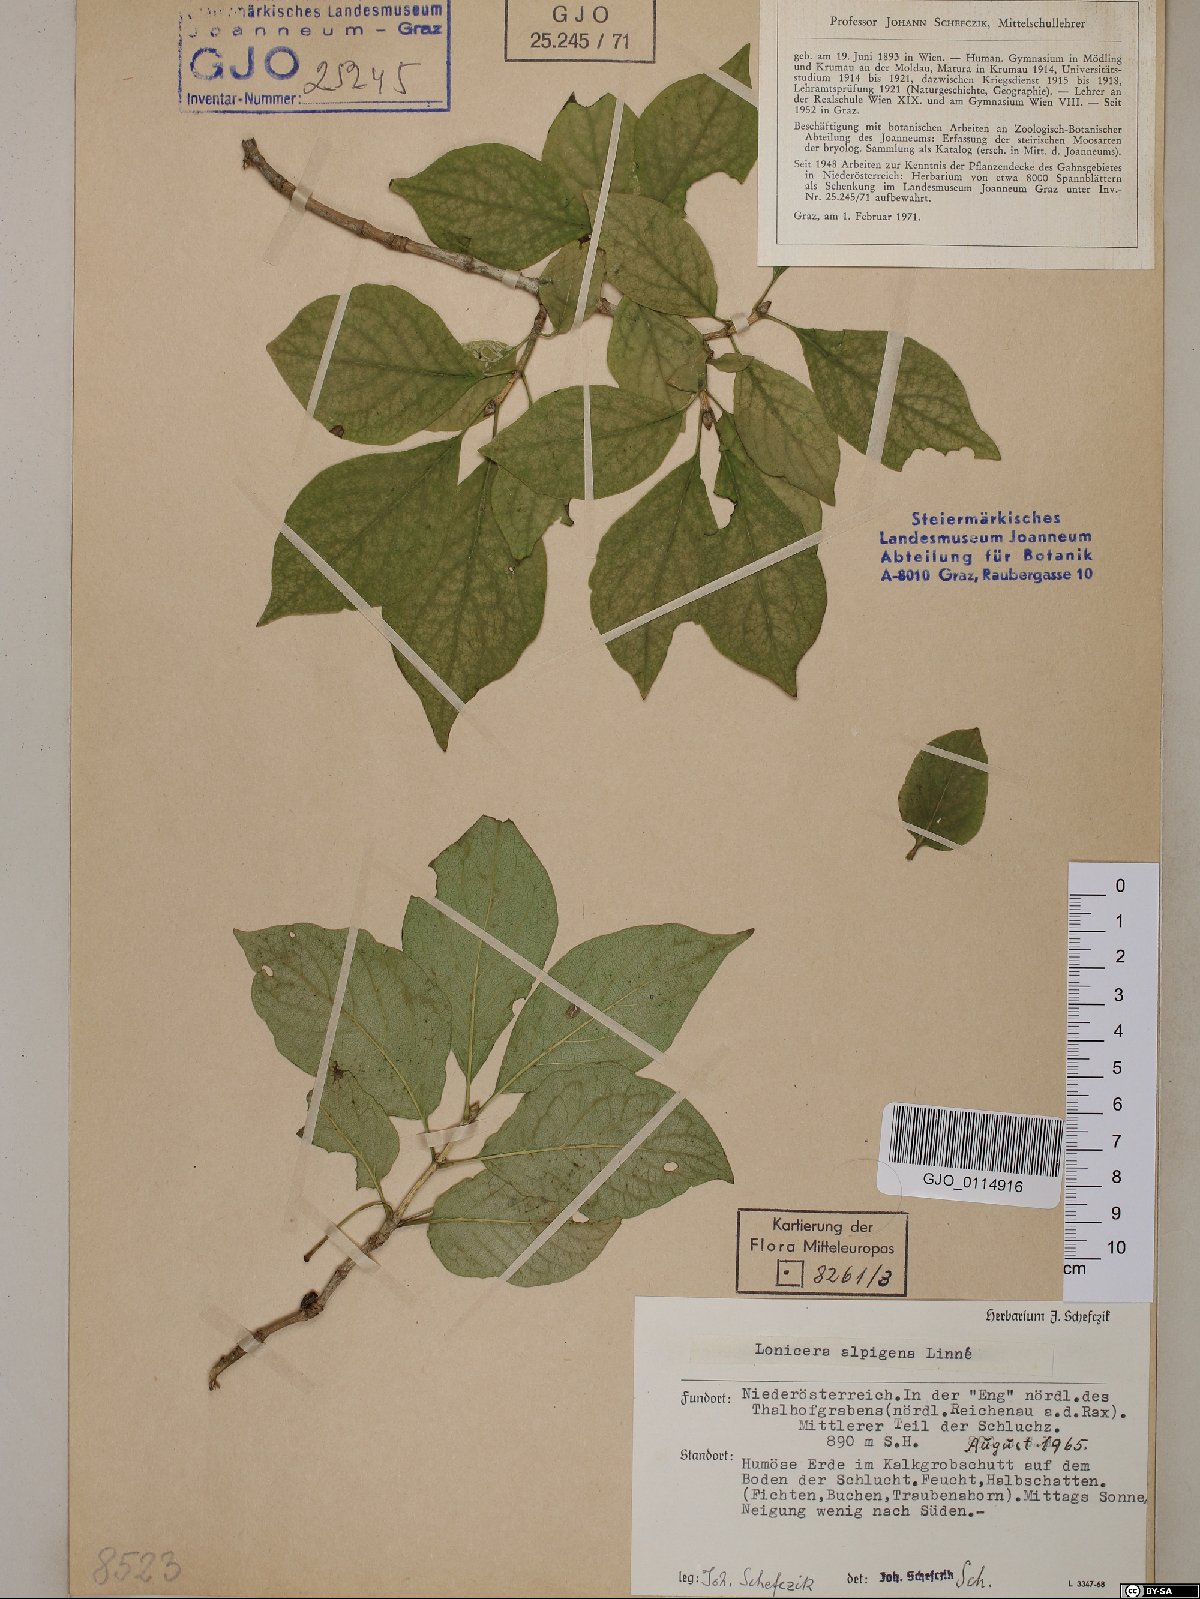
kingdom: Plantae
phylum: Tracheophyta
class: Magnoliopsida
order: Dipsacales
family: Caprifoliaceae
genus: Lonicera
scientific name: Lonicera alpigena
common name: Alpine honeysuckle
